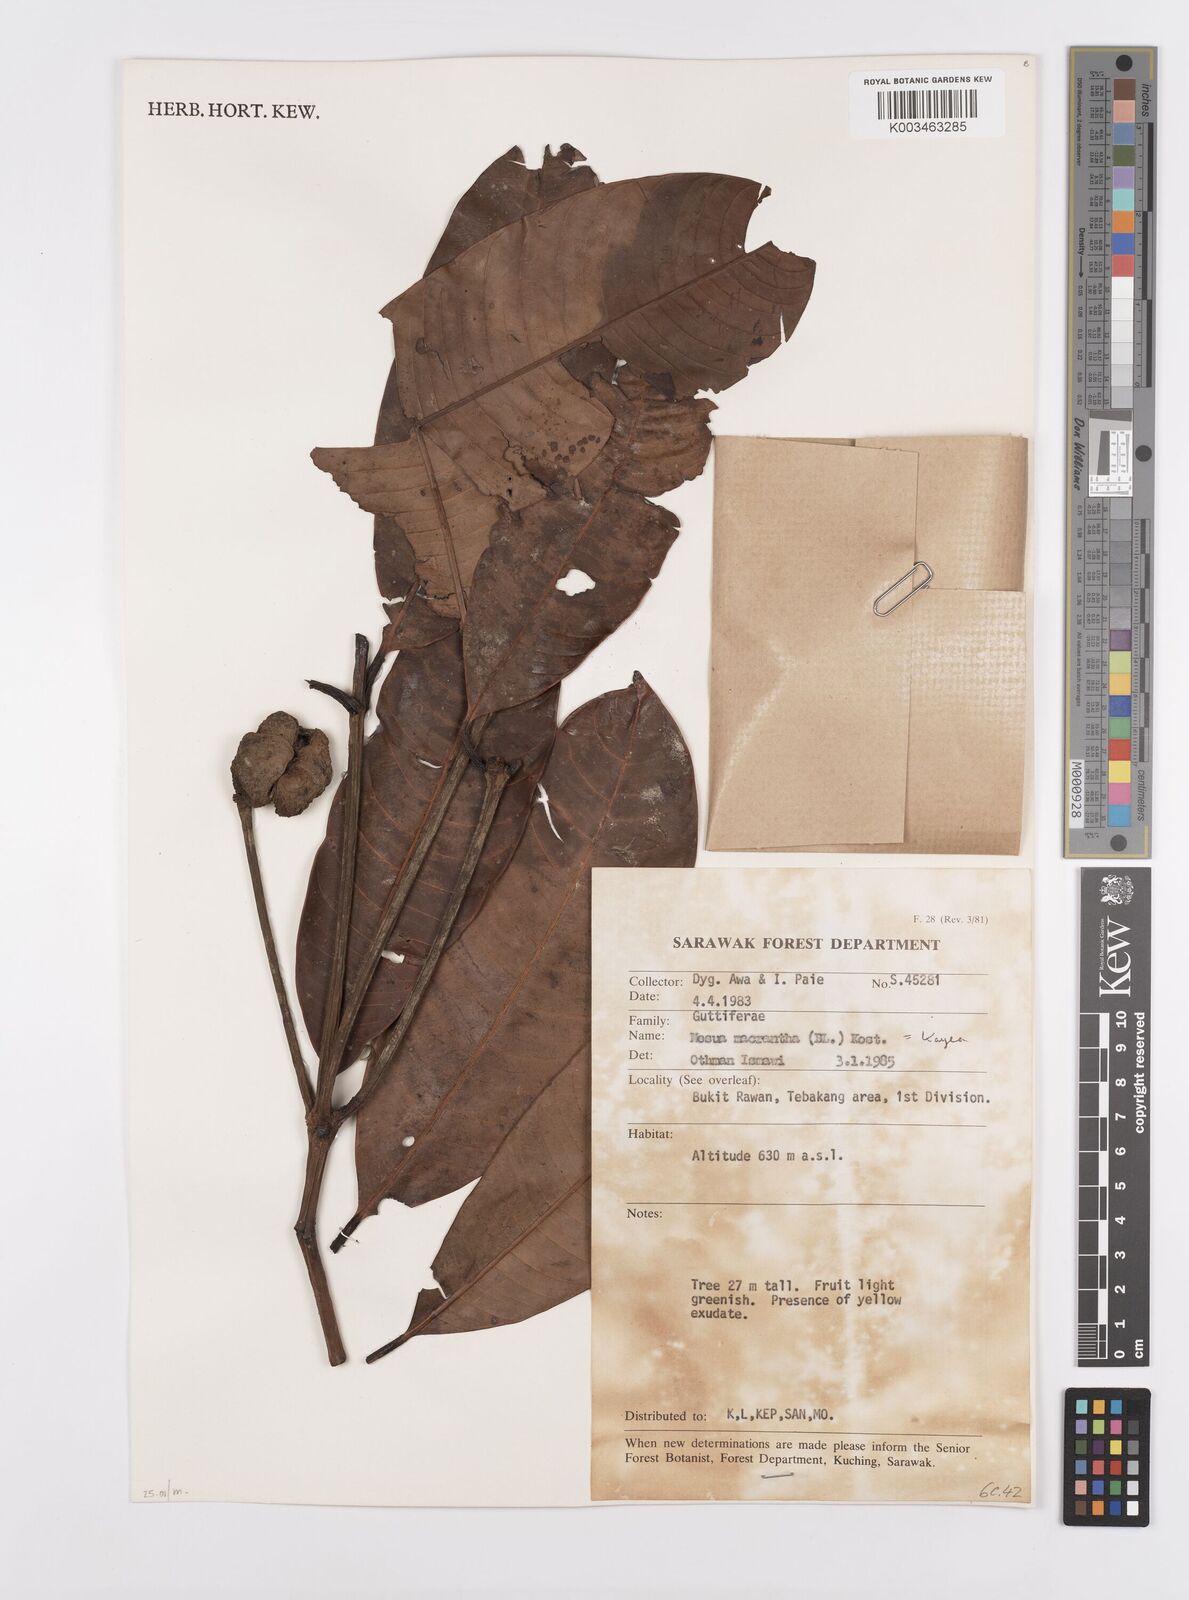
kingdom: Plantae
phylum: Tracheophyta
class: Magnoliopsida
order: Malpighiales
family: Calophyllaceae
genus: Kayea
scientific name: Kayea macrantha
